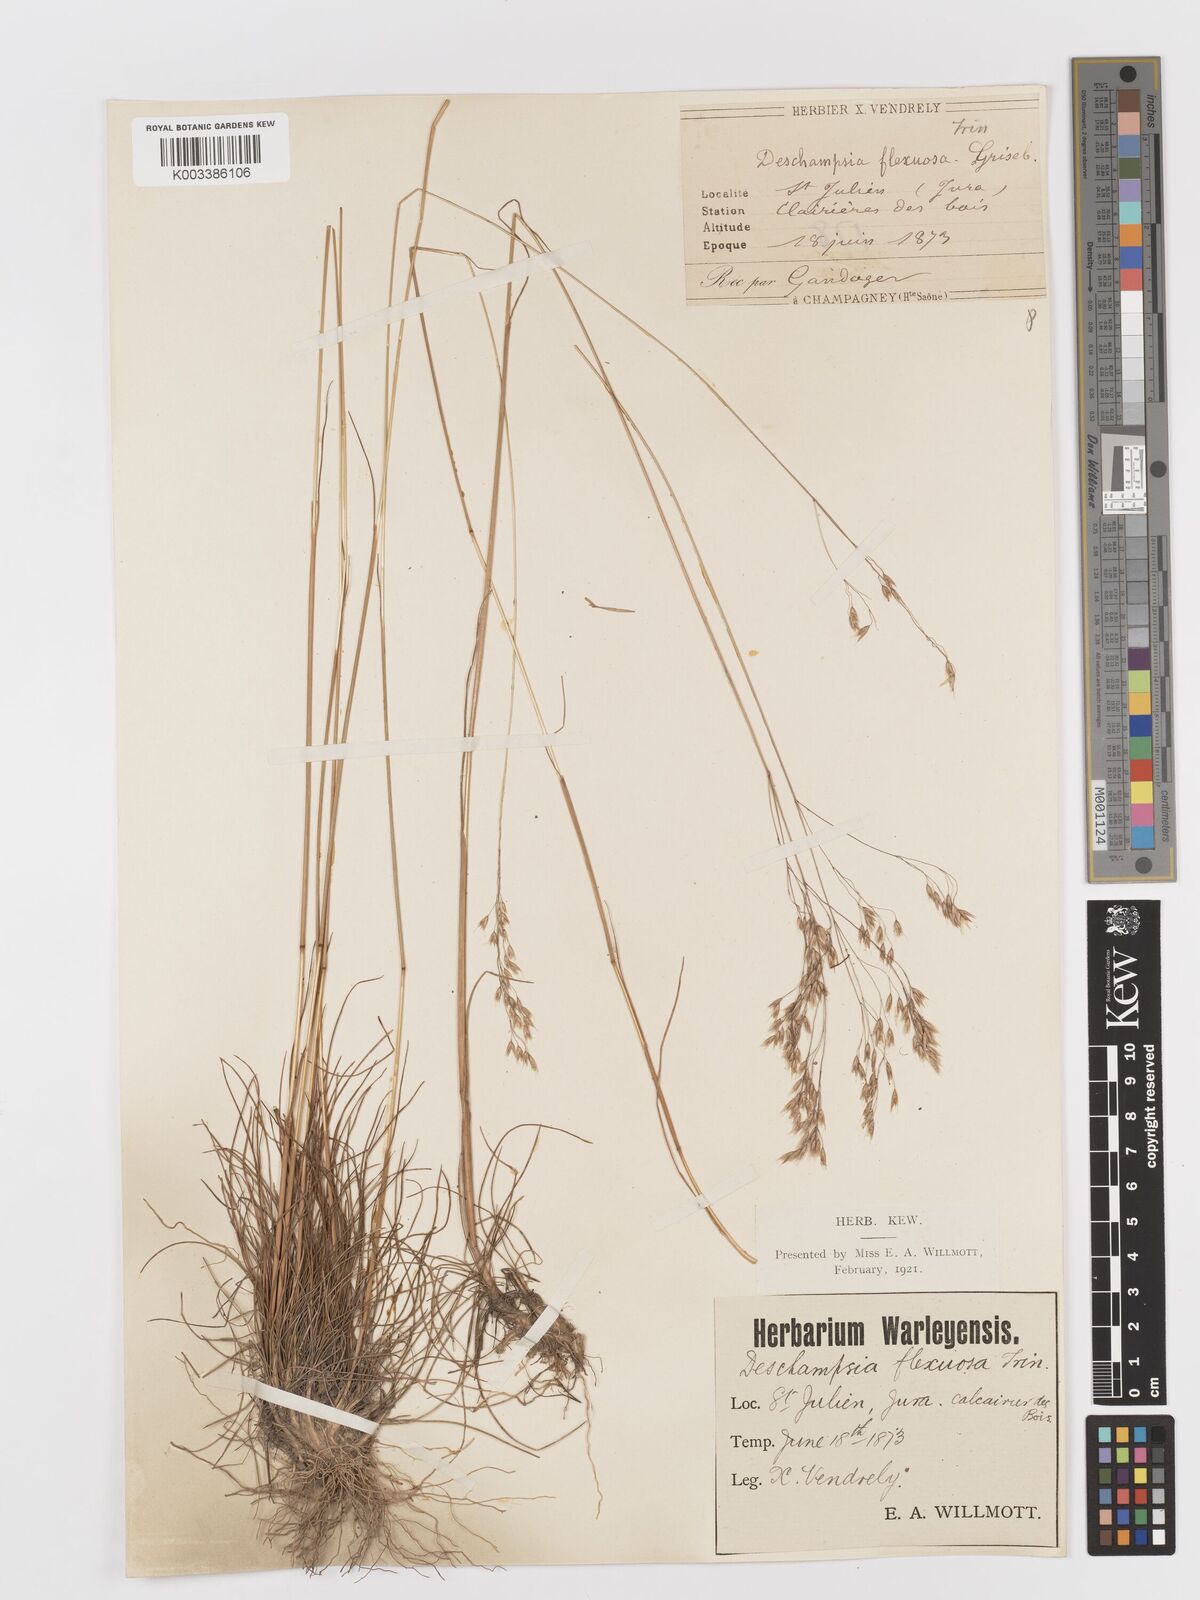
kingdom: Plantae
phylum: Tracheophyta
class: Liliopsida
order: Poales
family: Poaceae
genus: Avenella
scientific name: Avenella flexuosa
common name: Wavy hairgrass
